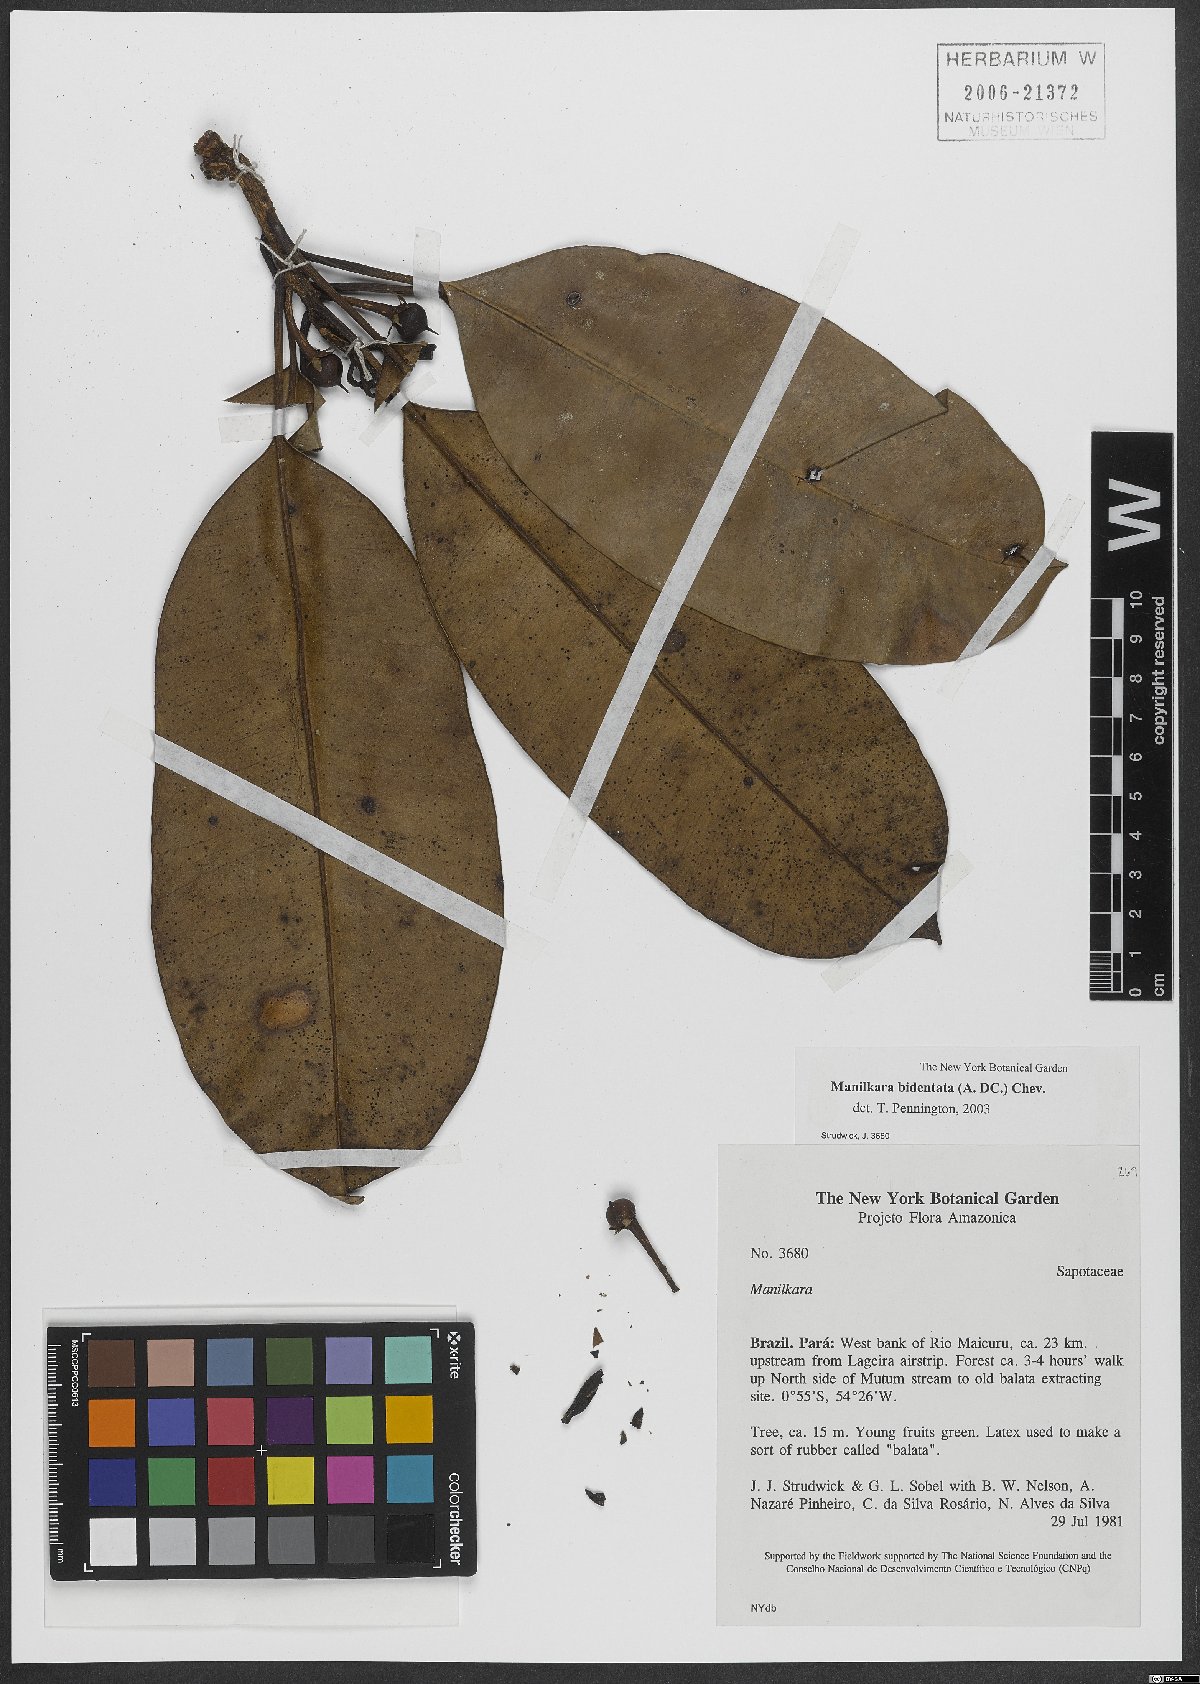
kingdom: Plantae
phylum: Tracheophyta
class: Magnoliopsida
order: Ericales
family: Sapotaceae
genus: Manilkara
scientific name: Manilkara bidentata
